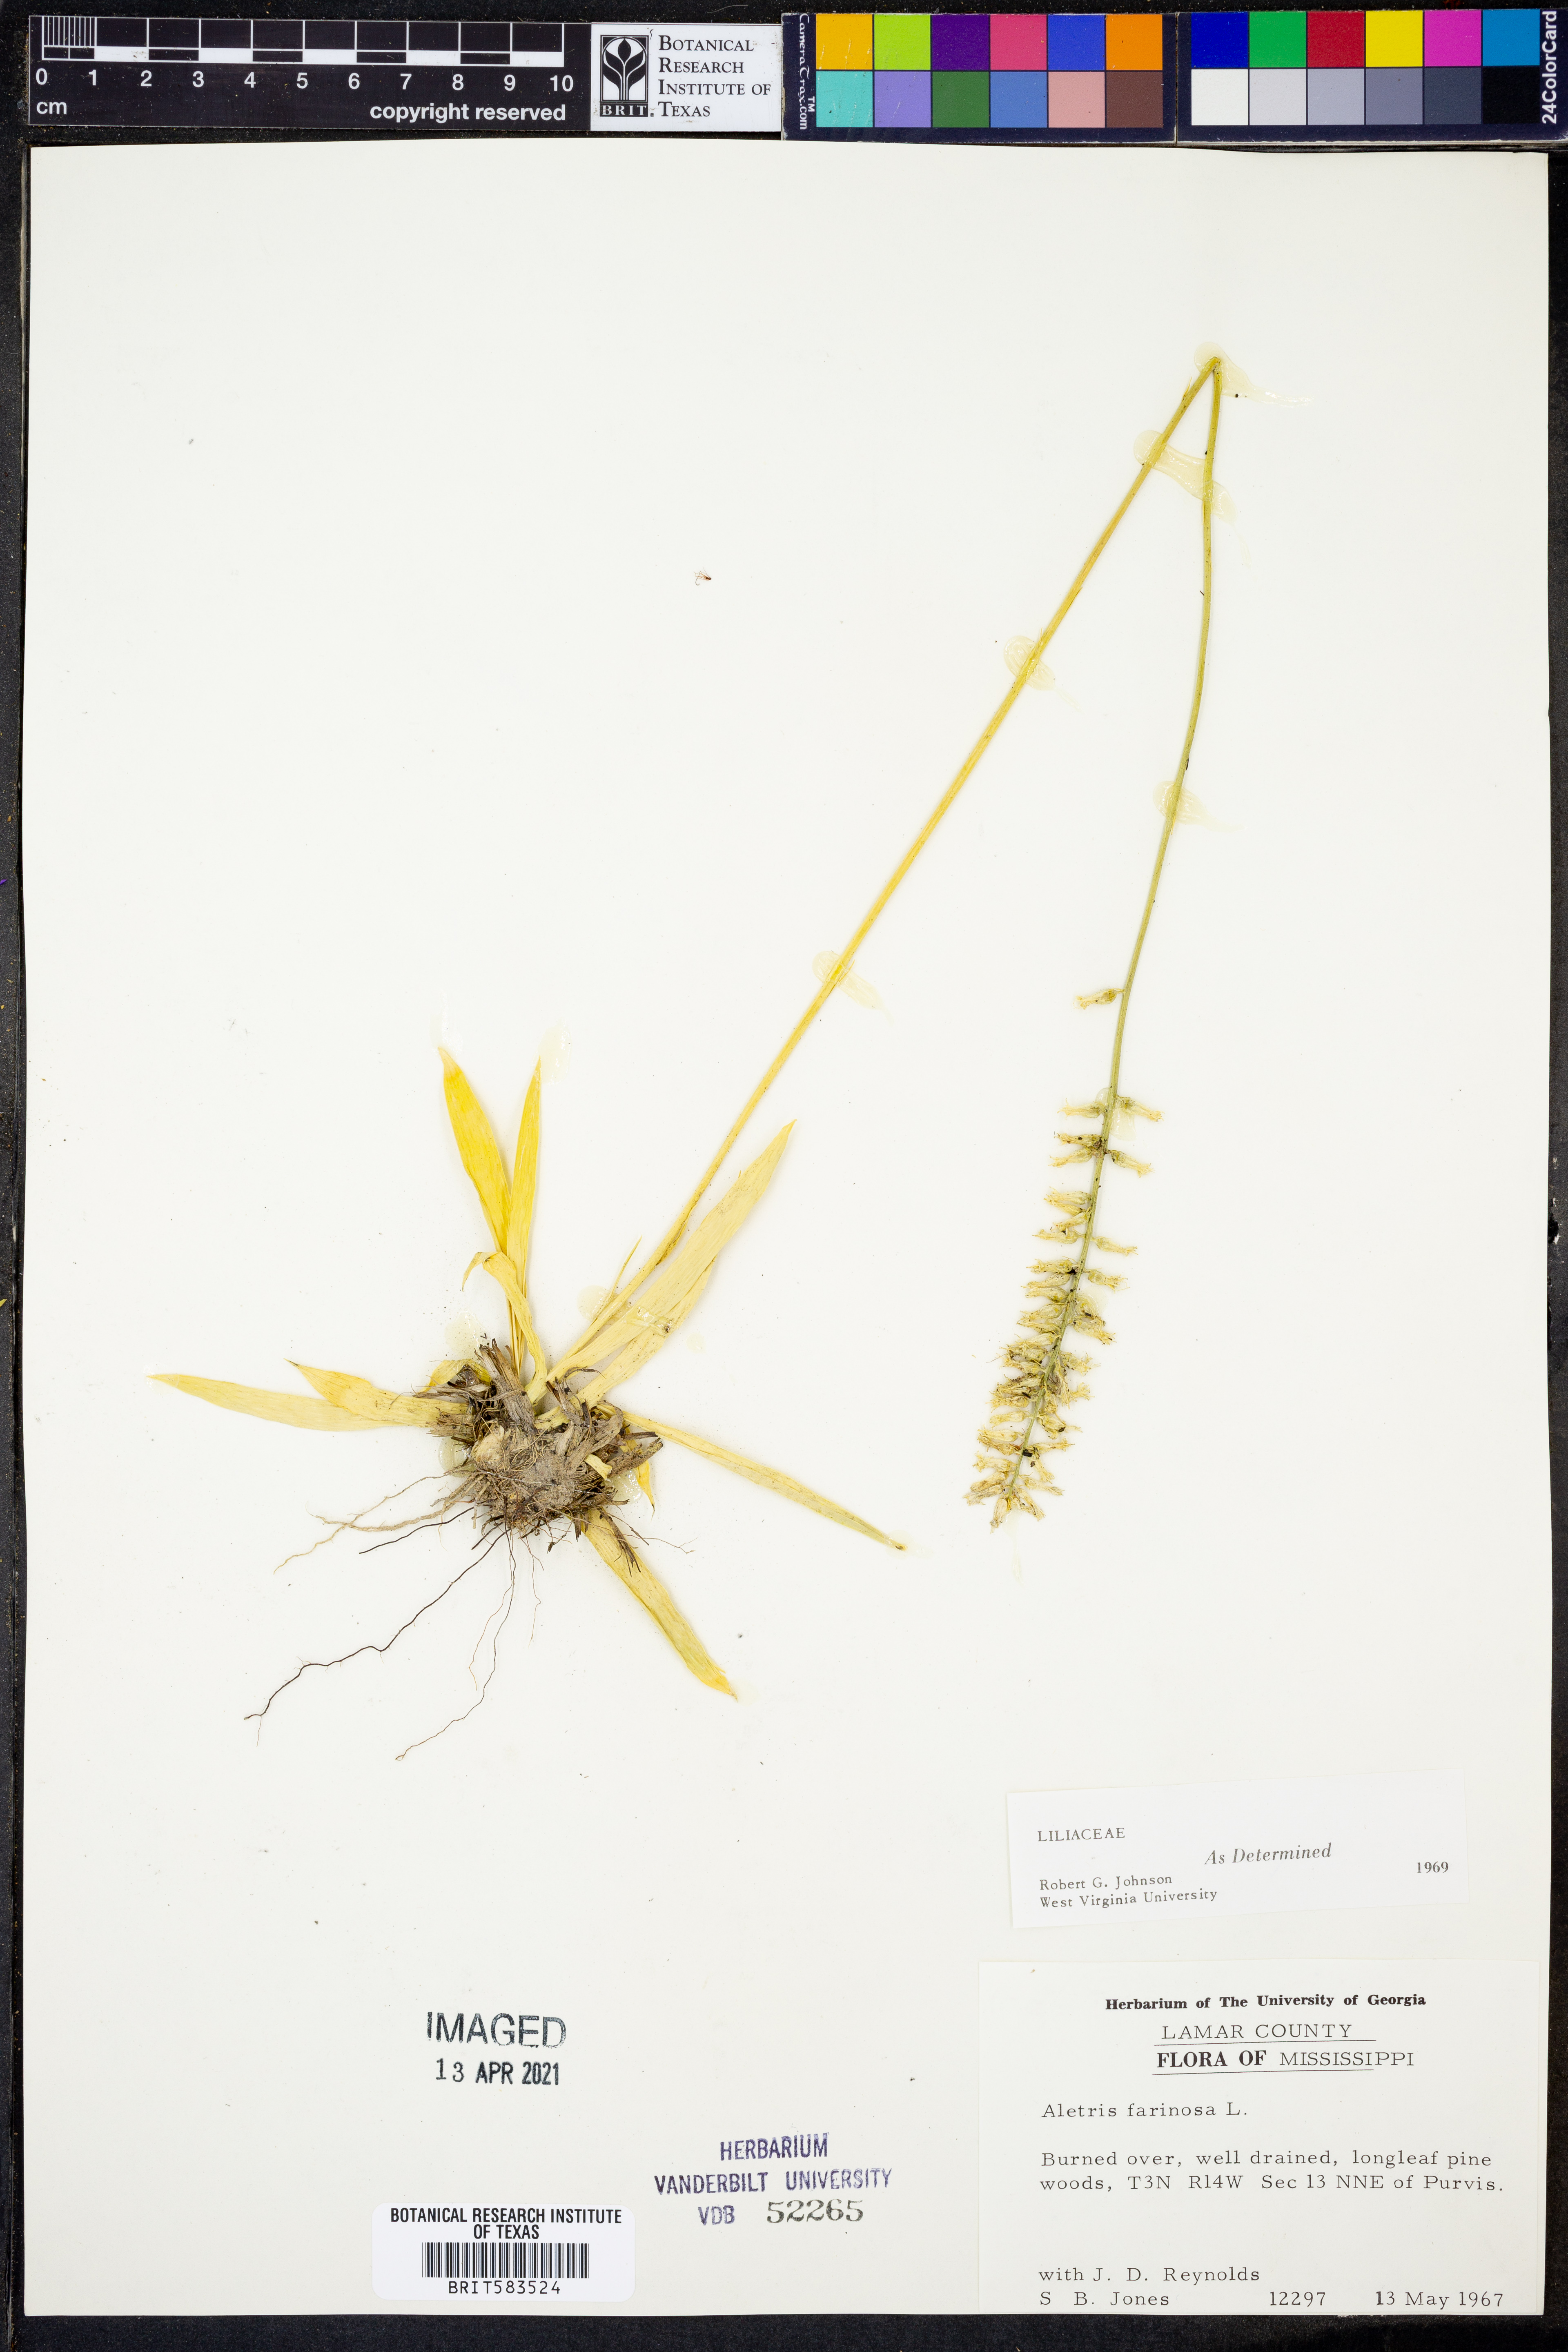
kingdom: Plantae
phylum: Tracheophyta
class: Liliopsida
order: Dioscoreales
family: Nartheciaceae
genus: Aletris
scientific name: Aletris farinosa
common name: Colicroot
